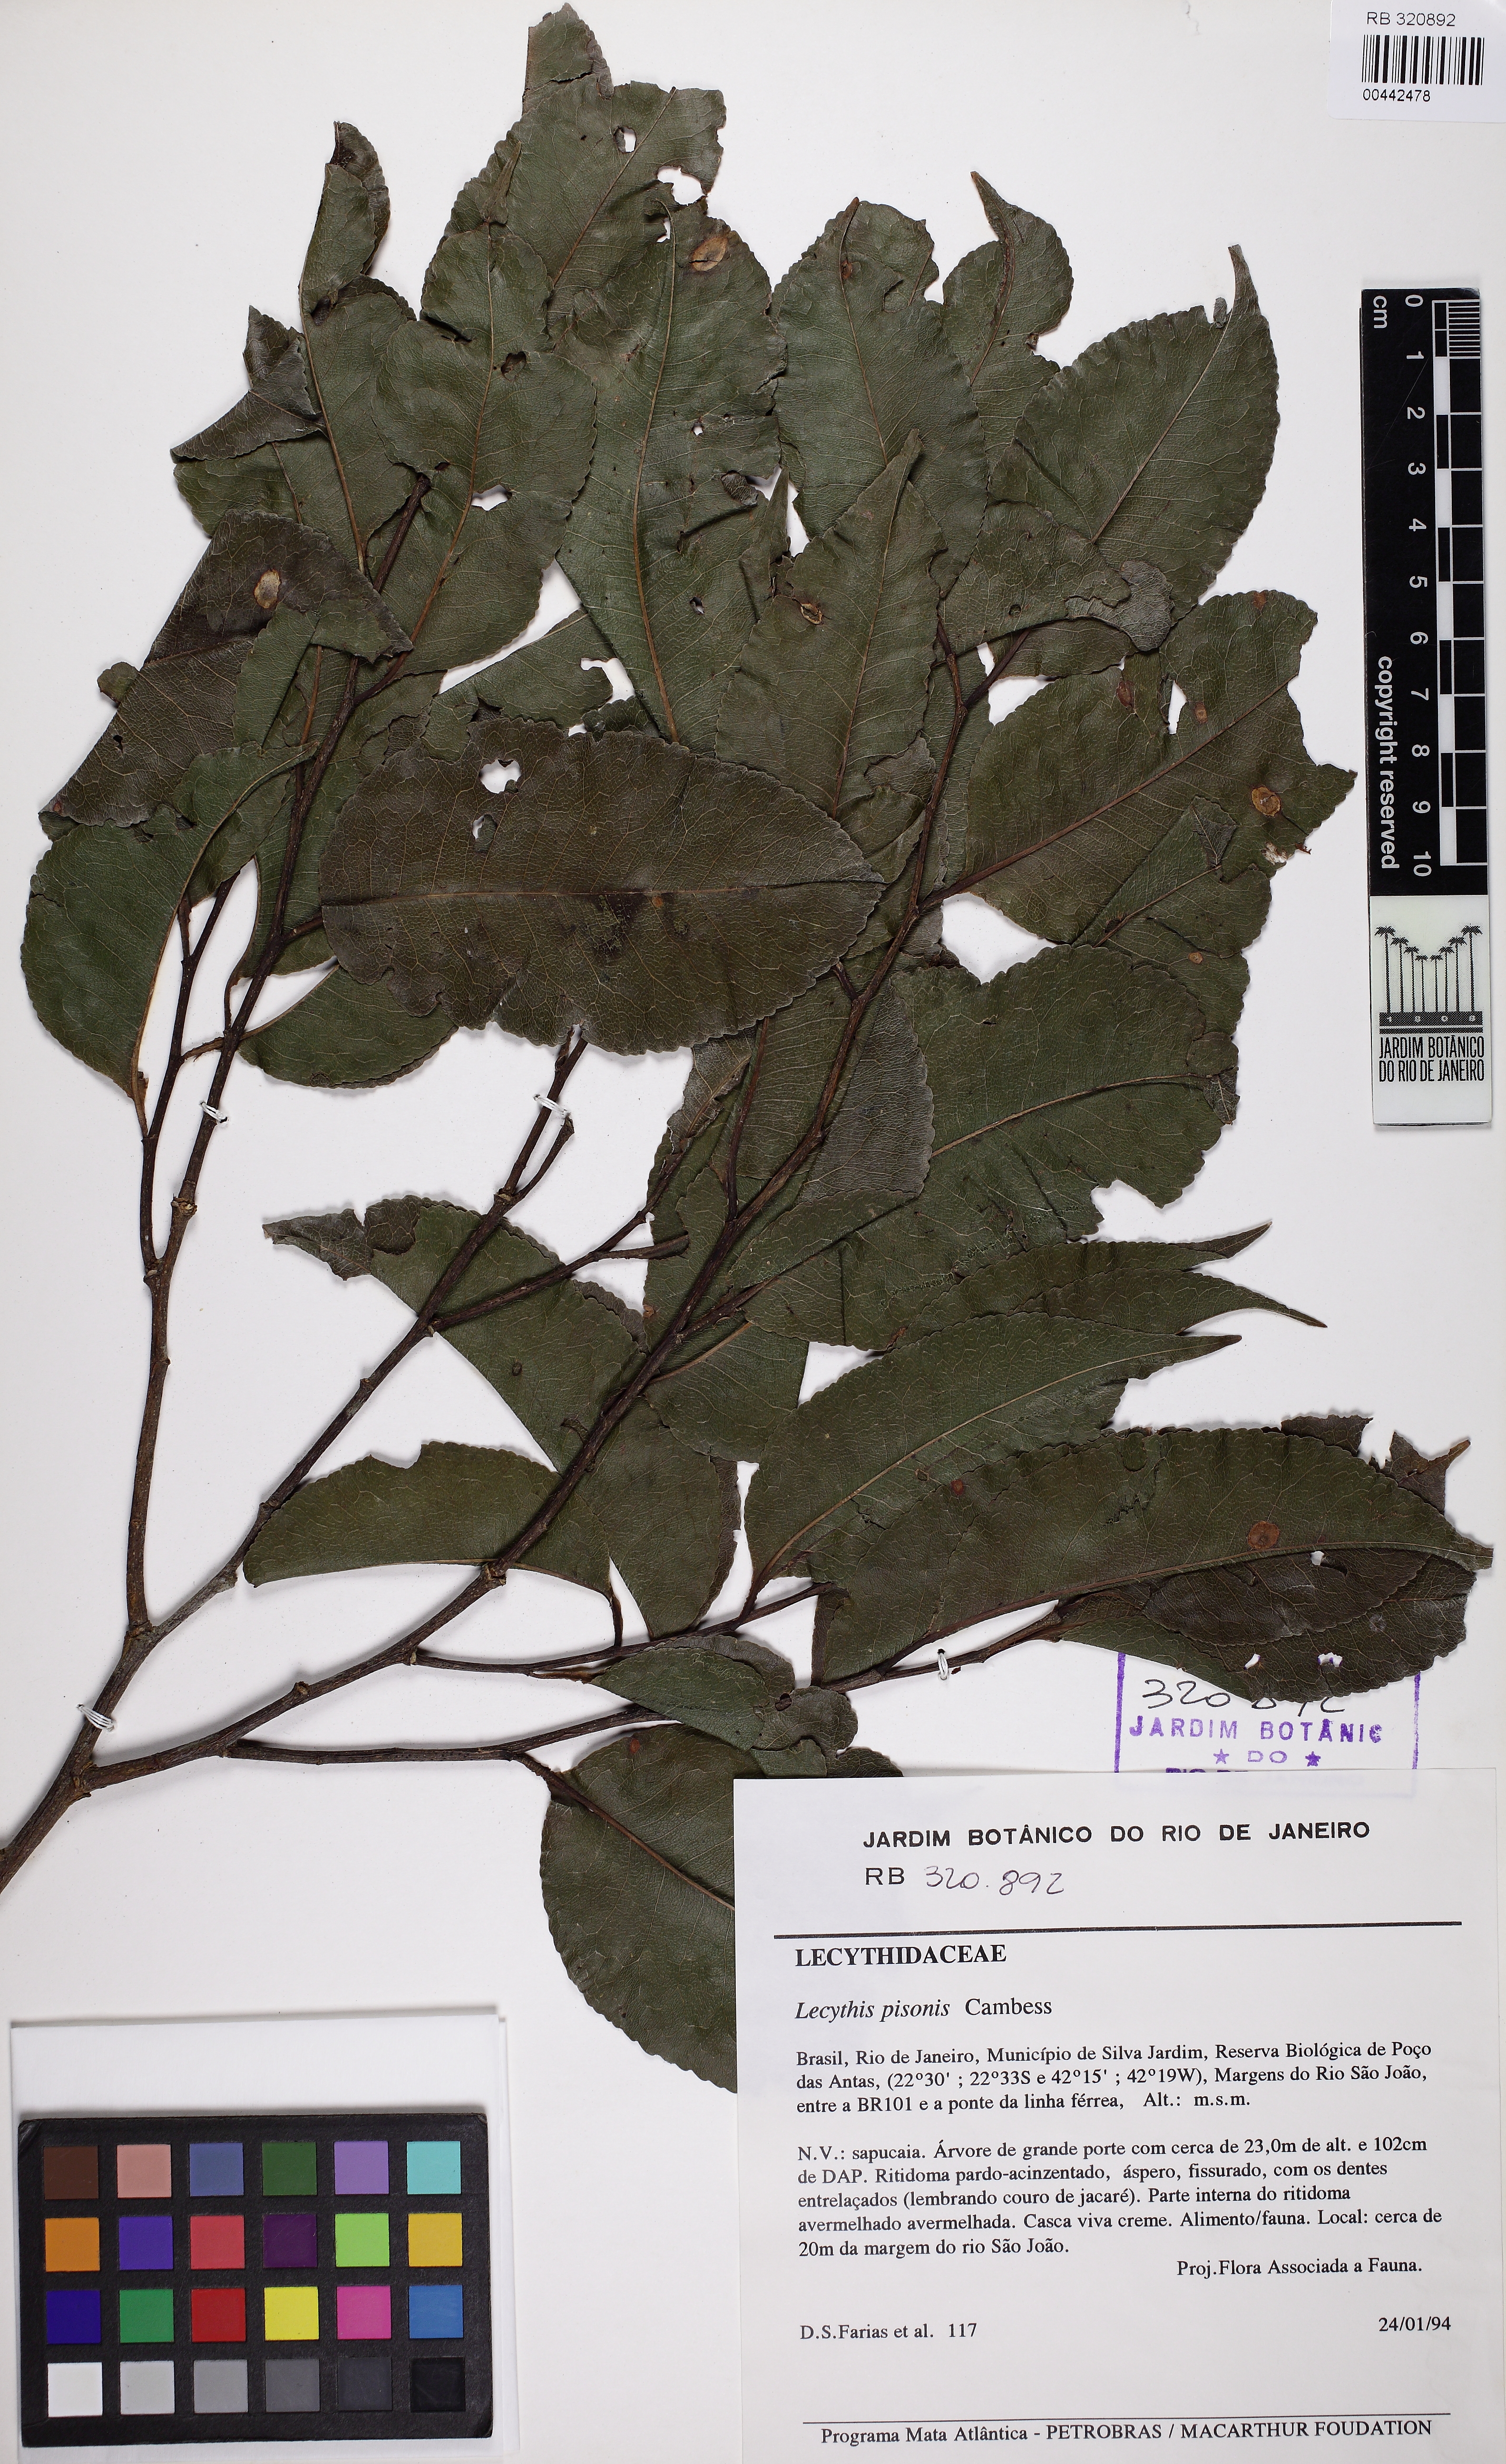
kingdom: Plantae
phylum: Tracheophyta
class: Magnoliopsida
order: Ericales
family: Lecythidaceae
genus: Lecythis
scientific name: Lecythis pisonis
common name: Paradise-nut
